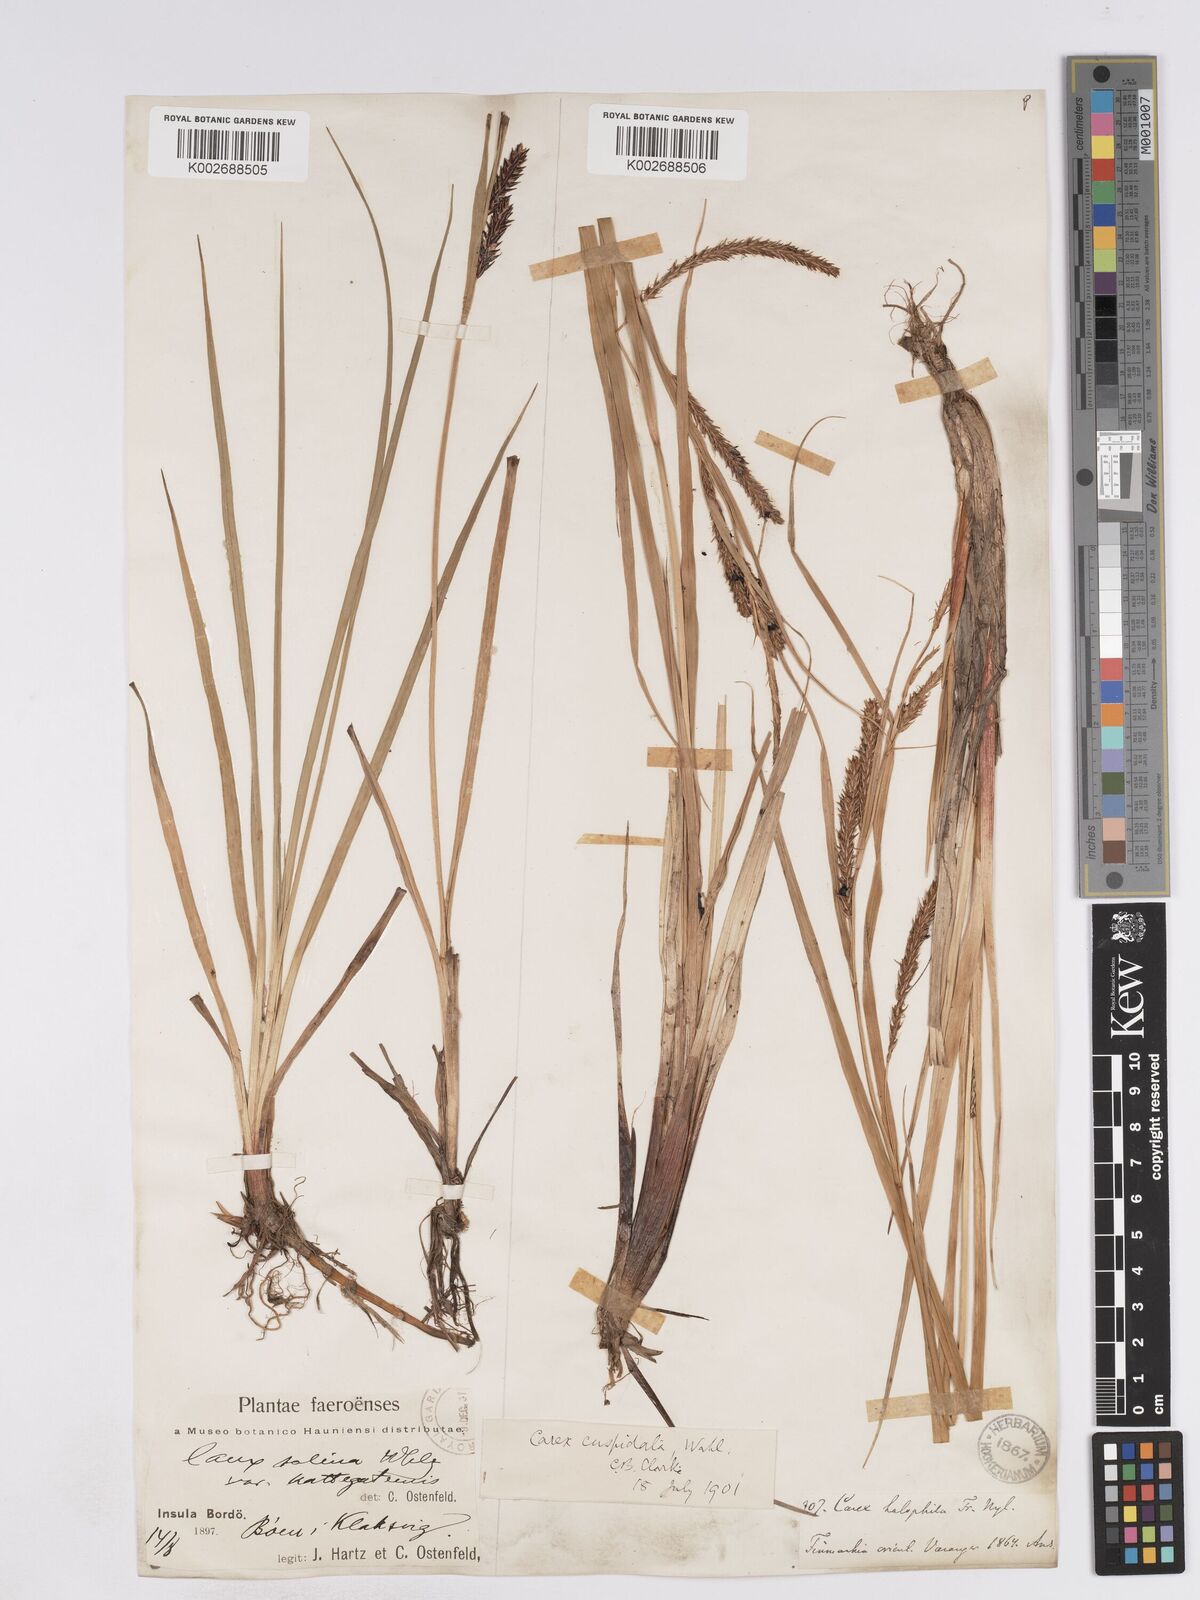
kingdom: Plantae
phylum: Tracheophyta
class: Liliopsida
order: Poales
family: Cyperaceae
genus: Carex
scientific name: Carex recta
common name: Estuarine sedge
